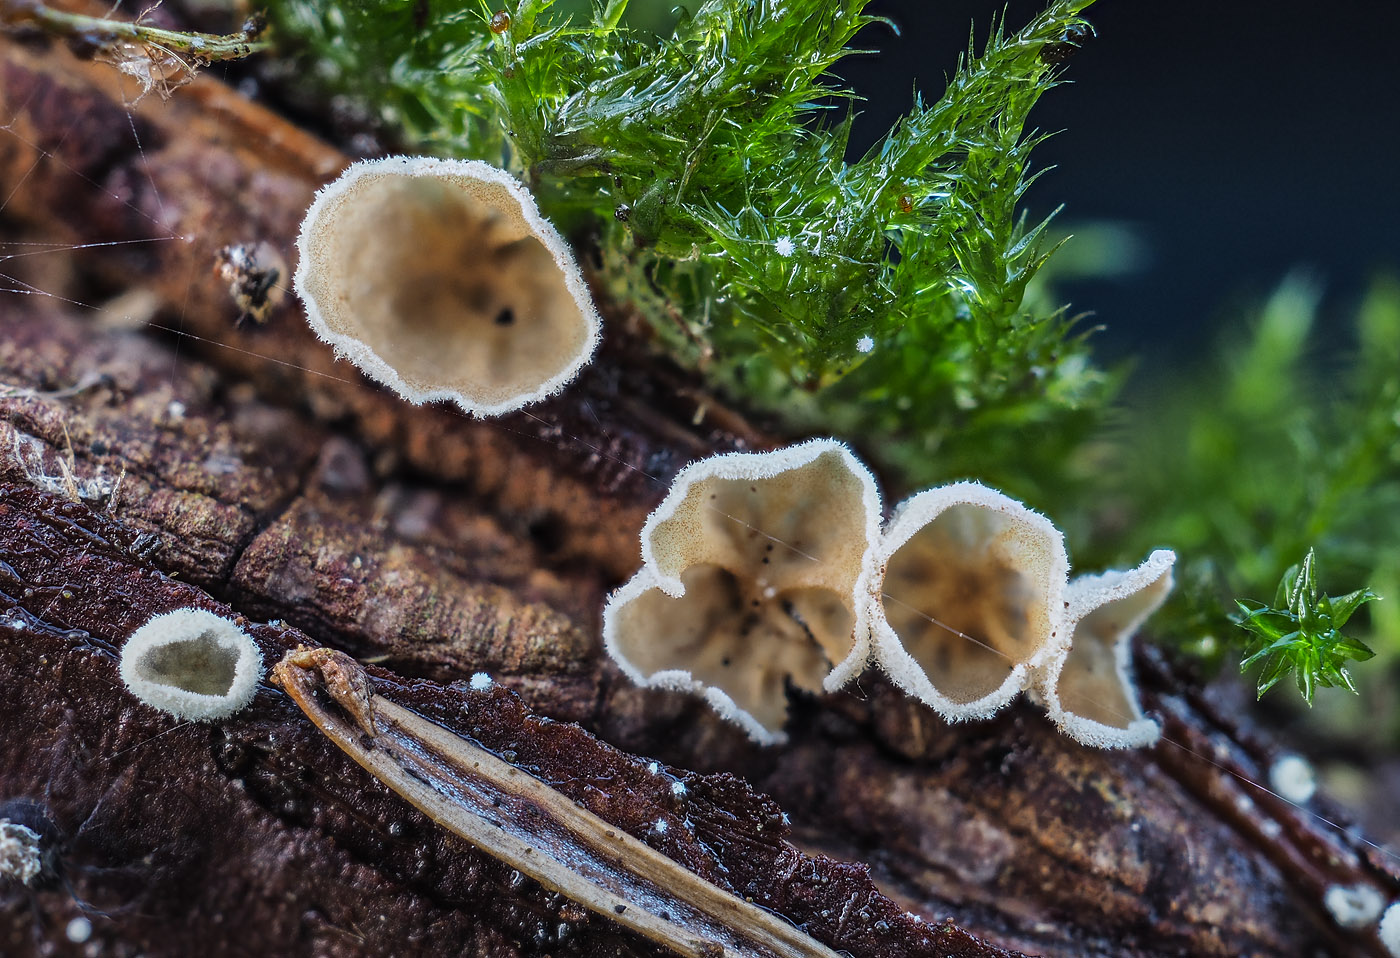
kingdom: Fungi
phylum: Basidiomycota
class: Agaricomycetes
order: Agaricales
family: Chromocyphellaceae
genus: Chromocyphella
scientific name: Chromocyphella muscicola
